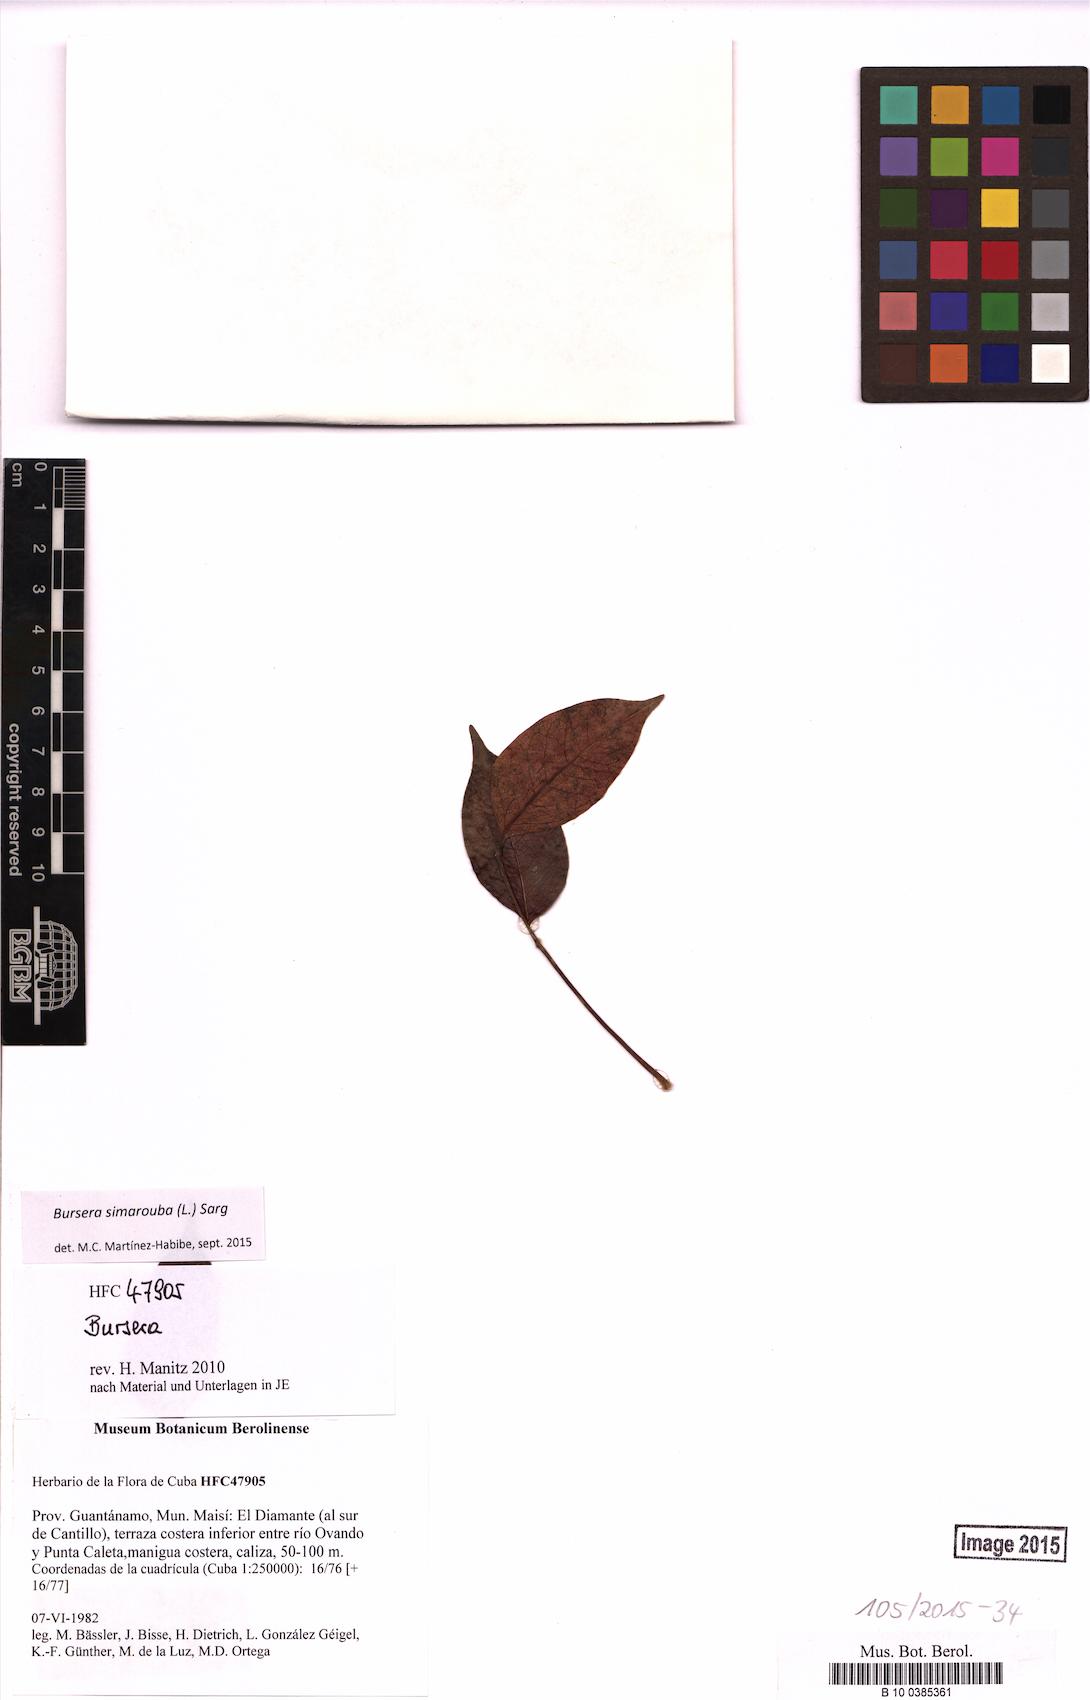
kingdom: Plantae
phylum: Tracheophyta
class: Magnoliopsida
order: Sapindales
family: Burseraceae
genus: Bursera
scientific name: Bursera simaruba
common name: Turpentine tree
